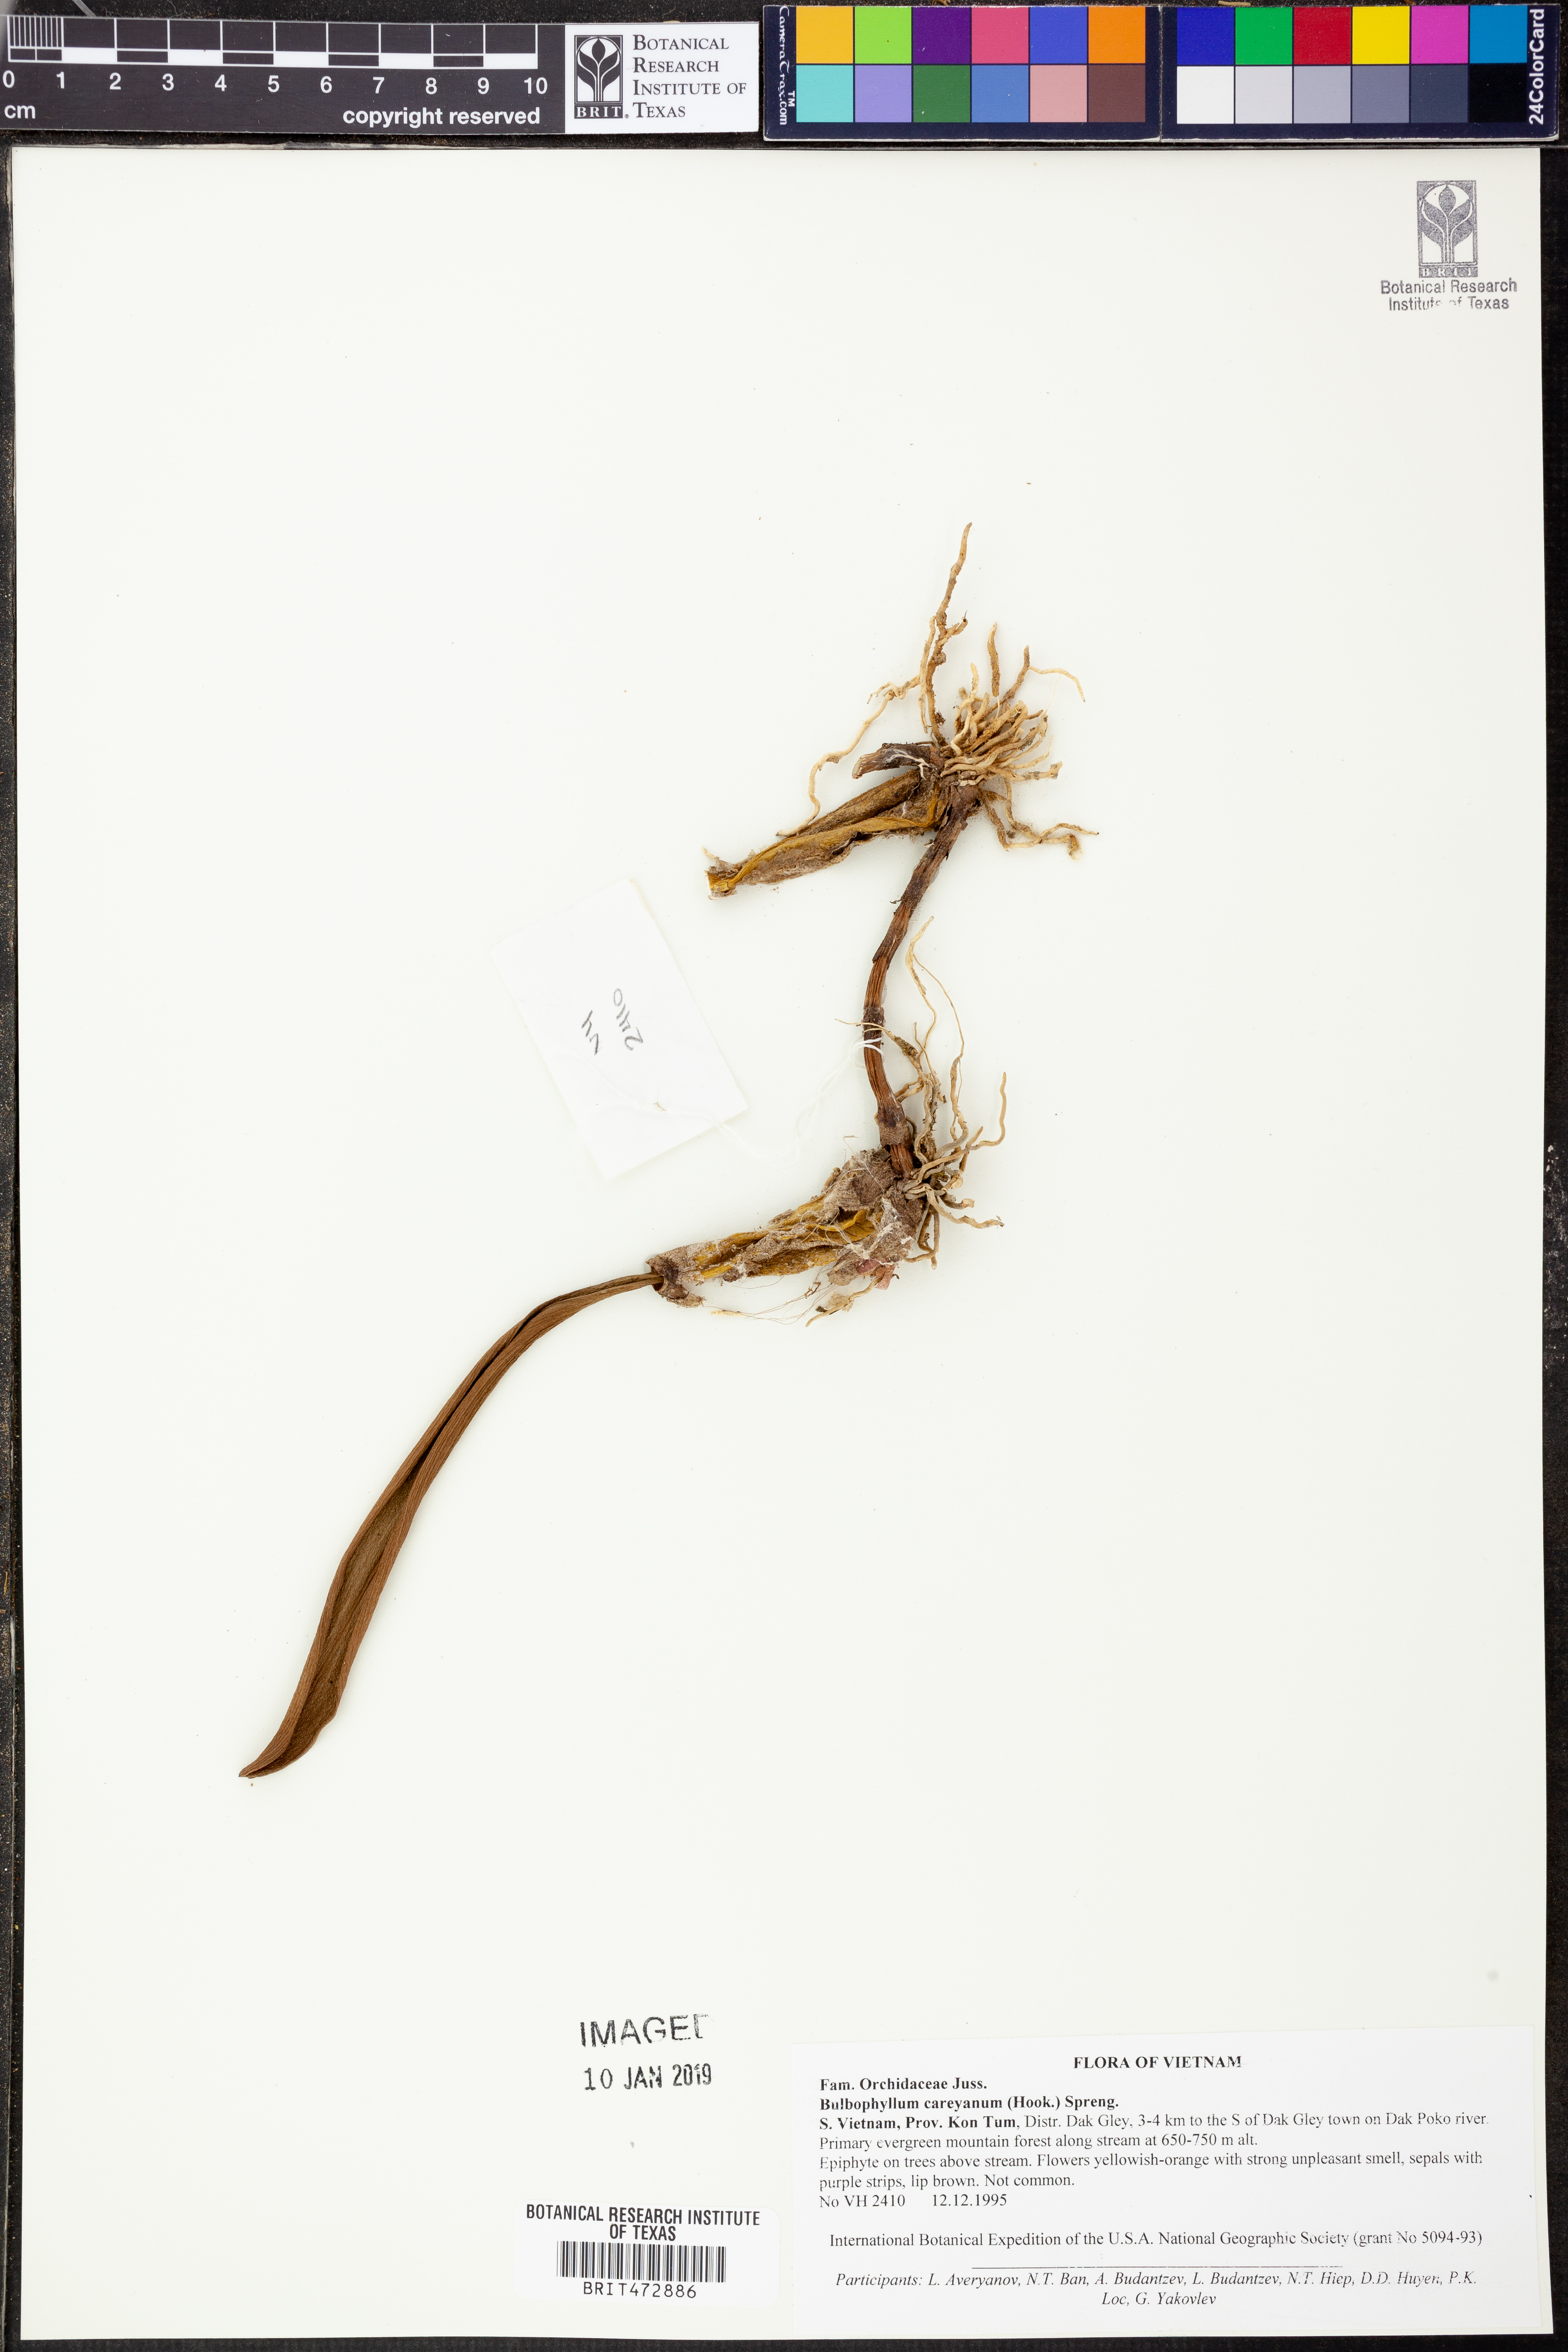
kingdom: Plantae
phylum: Tracheophyta
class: Liliopsida
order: Asparagales
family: Orchidaceae
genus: Bulbophyllum
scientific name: Bulbophyllum careyanum
